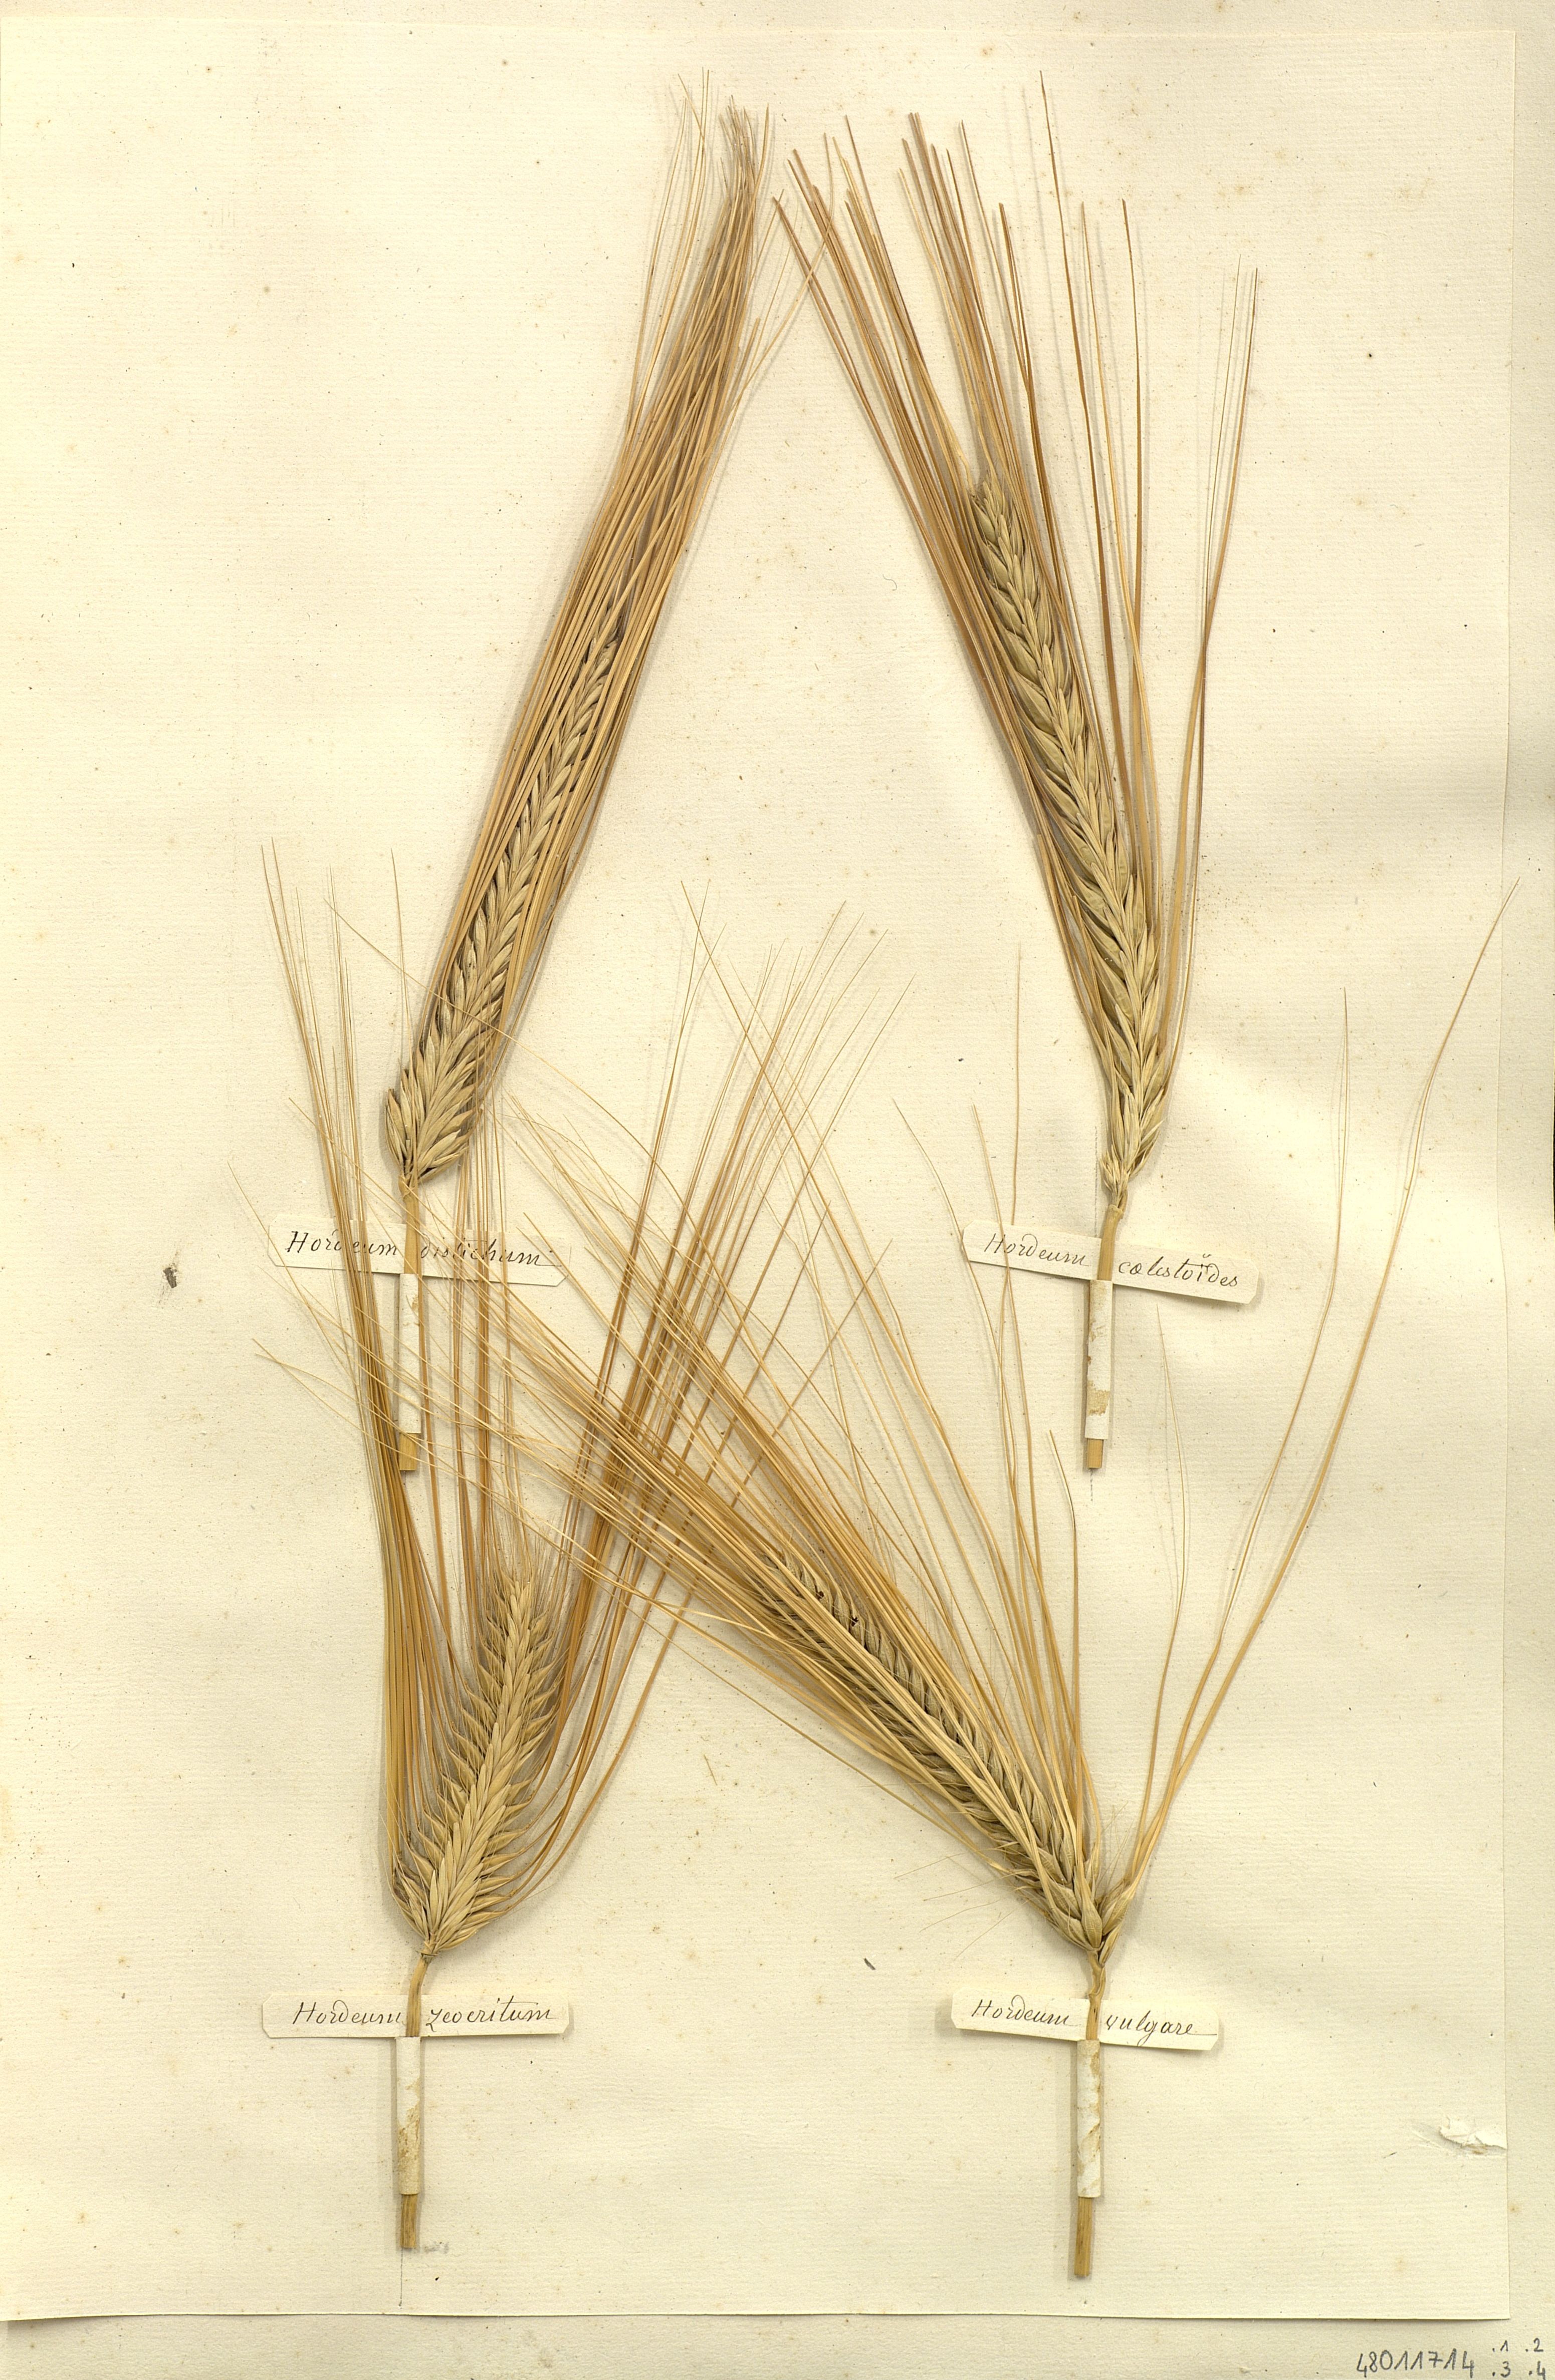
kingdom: Plantae
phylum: Tracheophyta
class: Liliopsida
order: Poales
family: Poaceae
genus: Hordeum
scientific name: Hordeum vulgare
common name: Common barley
